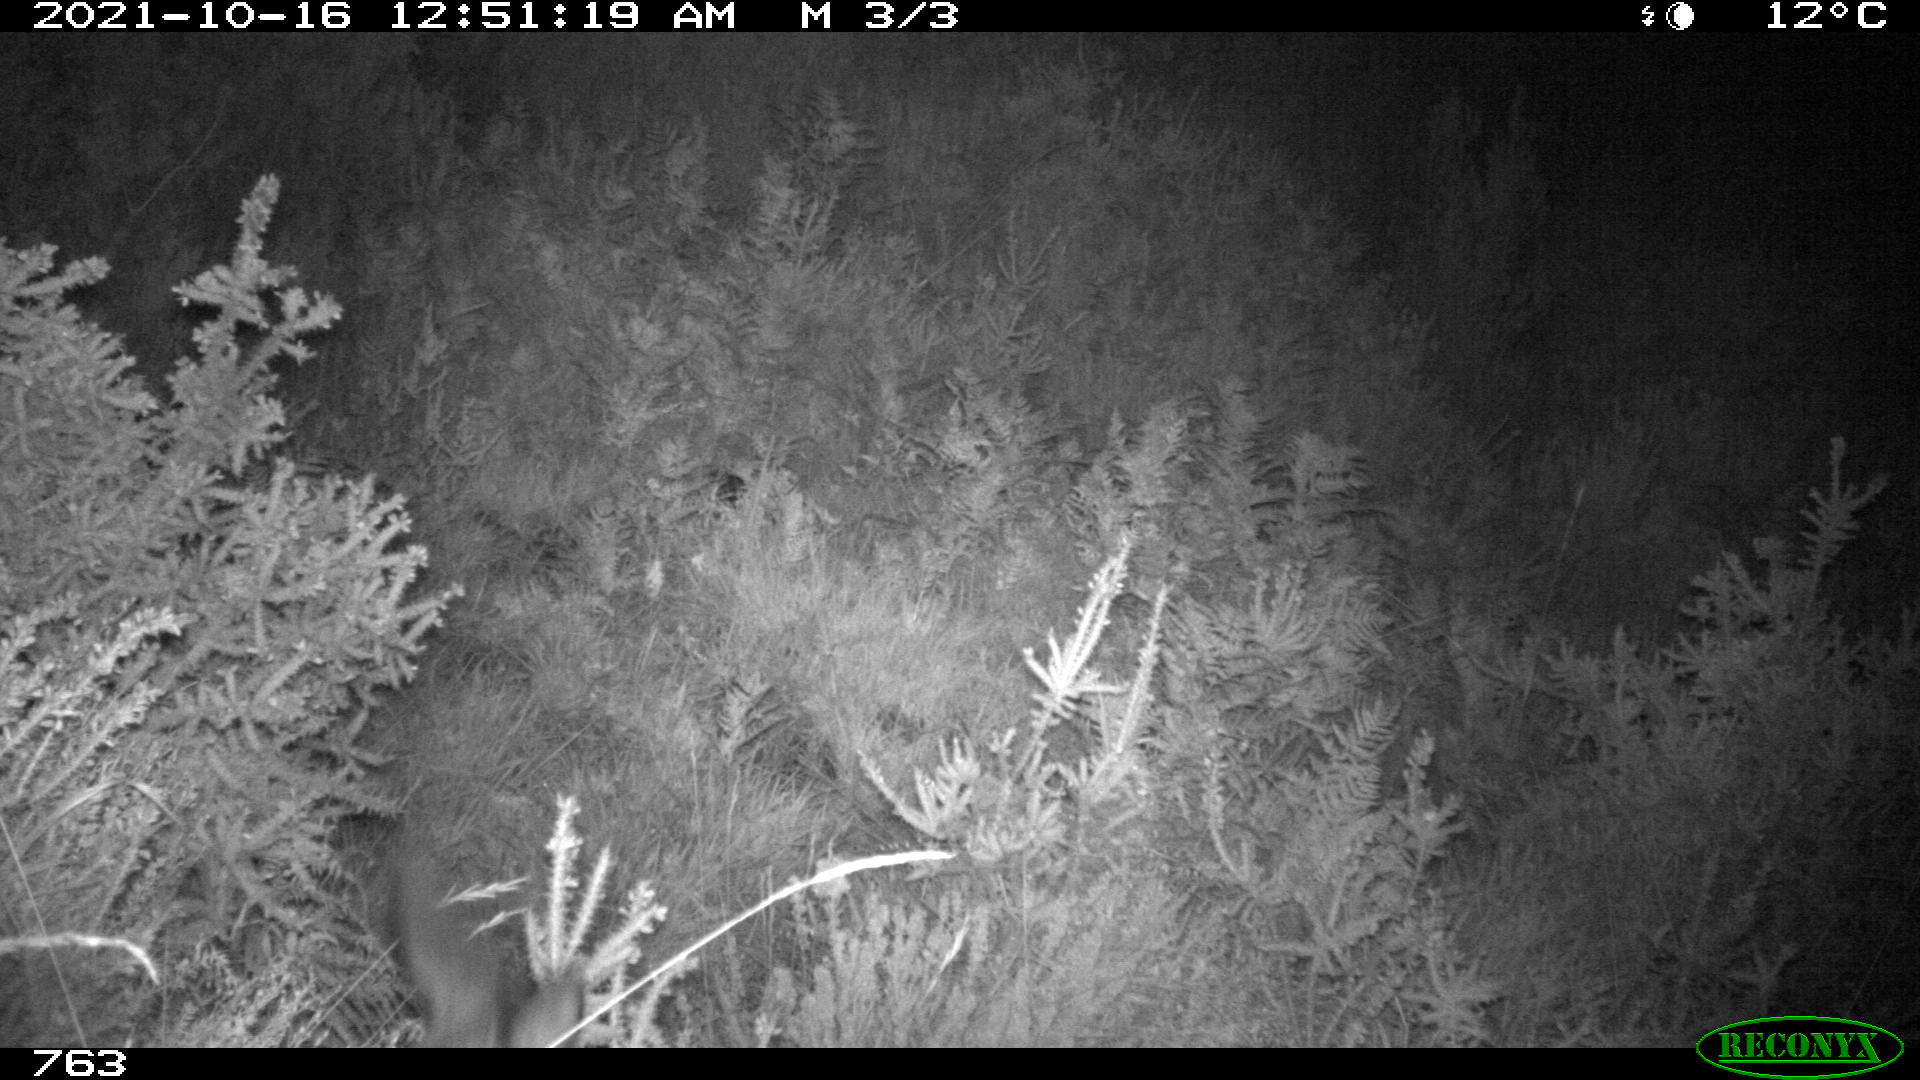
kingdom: Animalia
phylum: Chordata
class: Mammalia
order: Artiodactyla
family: Cervidae
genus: Capreolus
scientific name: Capreolus capreolus
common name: Western roe deer
